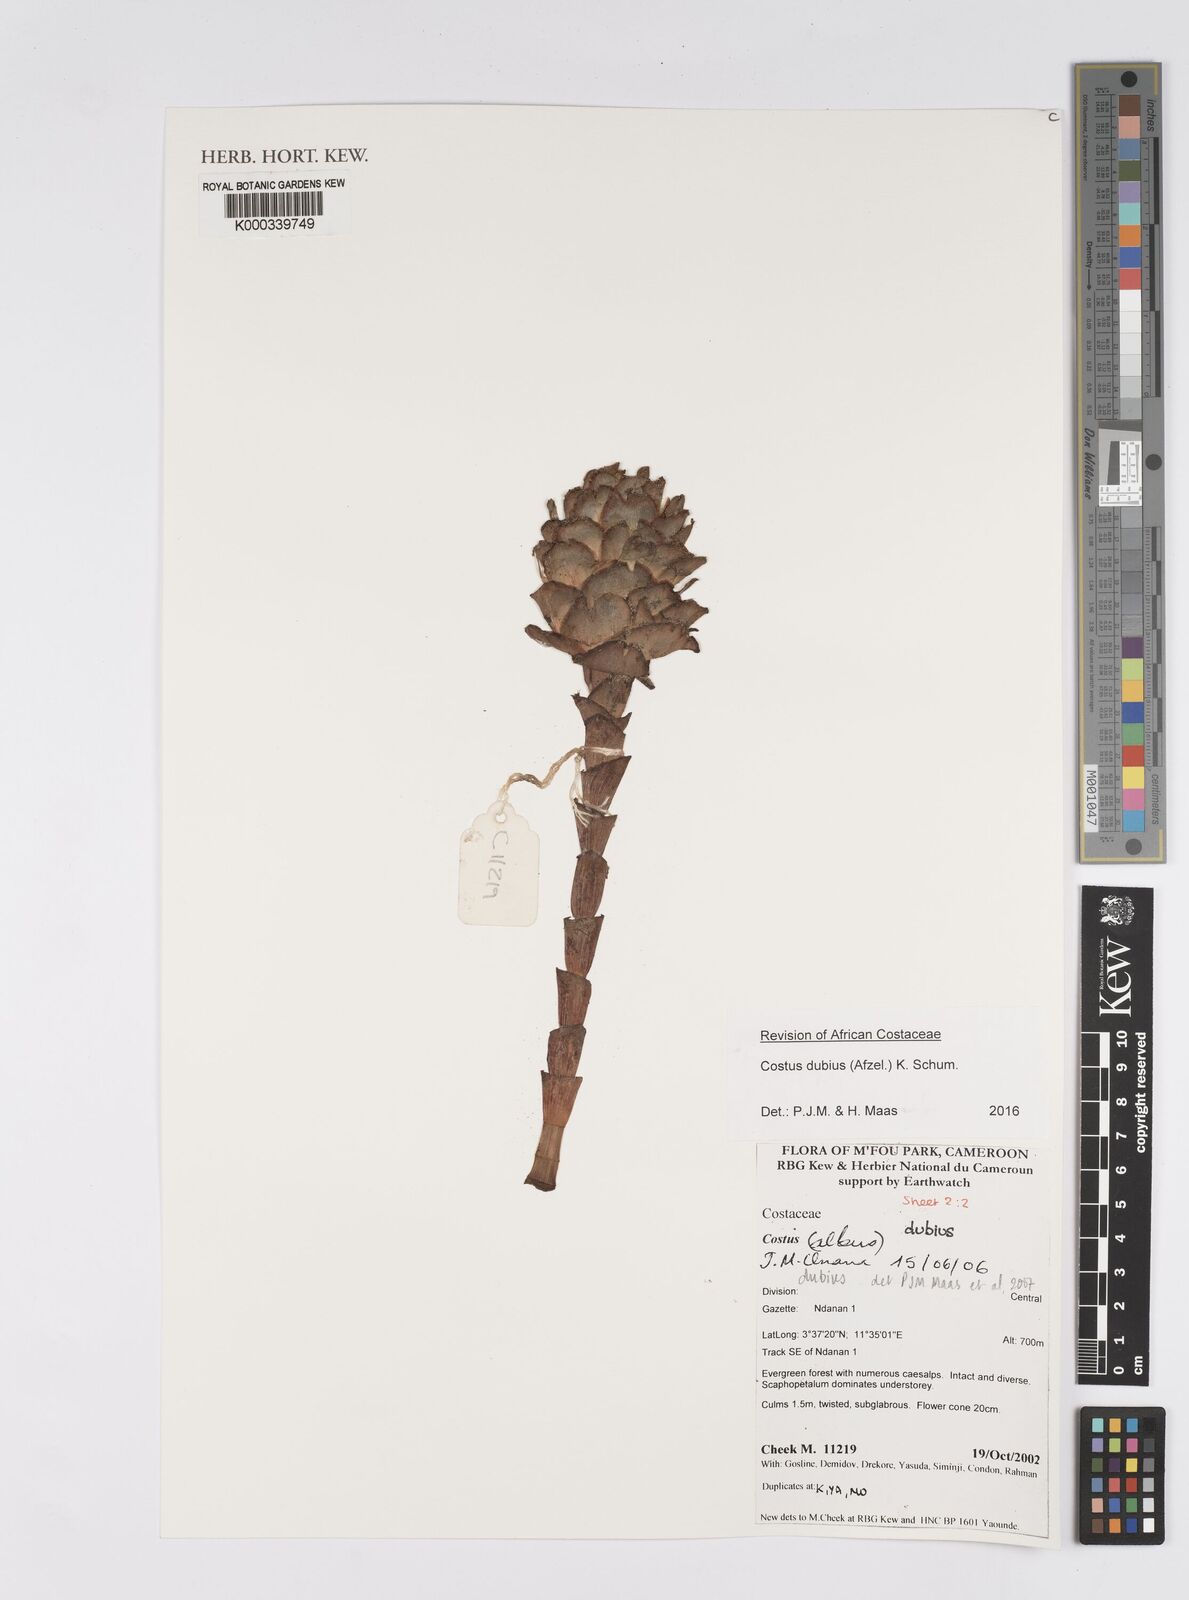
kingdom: Plantae
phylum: Tracheophyta
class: Liliopsida
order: Zingiberales
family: Costaceae
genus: Costus
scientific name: Costus dubius
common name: Costus
